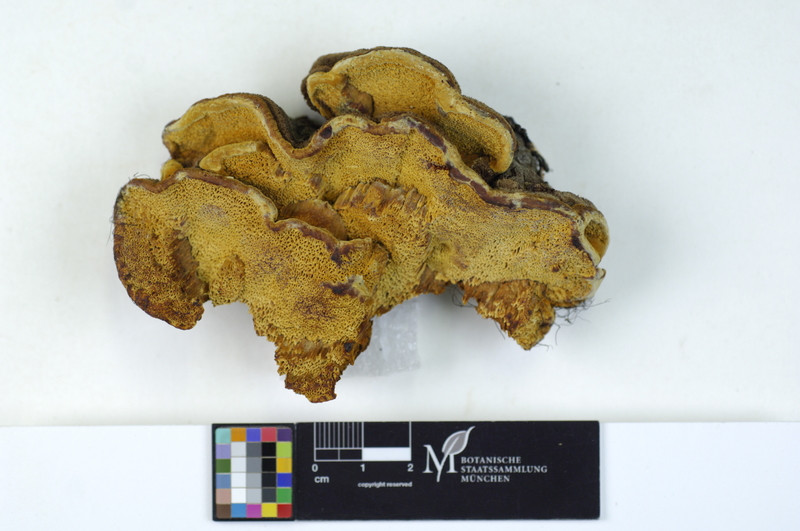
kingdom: Fungi
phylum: Basidiomycota
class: Agaricomycetes
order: Hymenochaetales
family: Hymenochaetaceae
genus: Phellinus
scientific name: Phellinus chrysoloma
